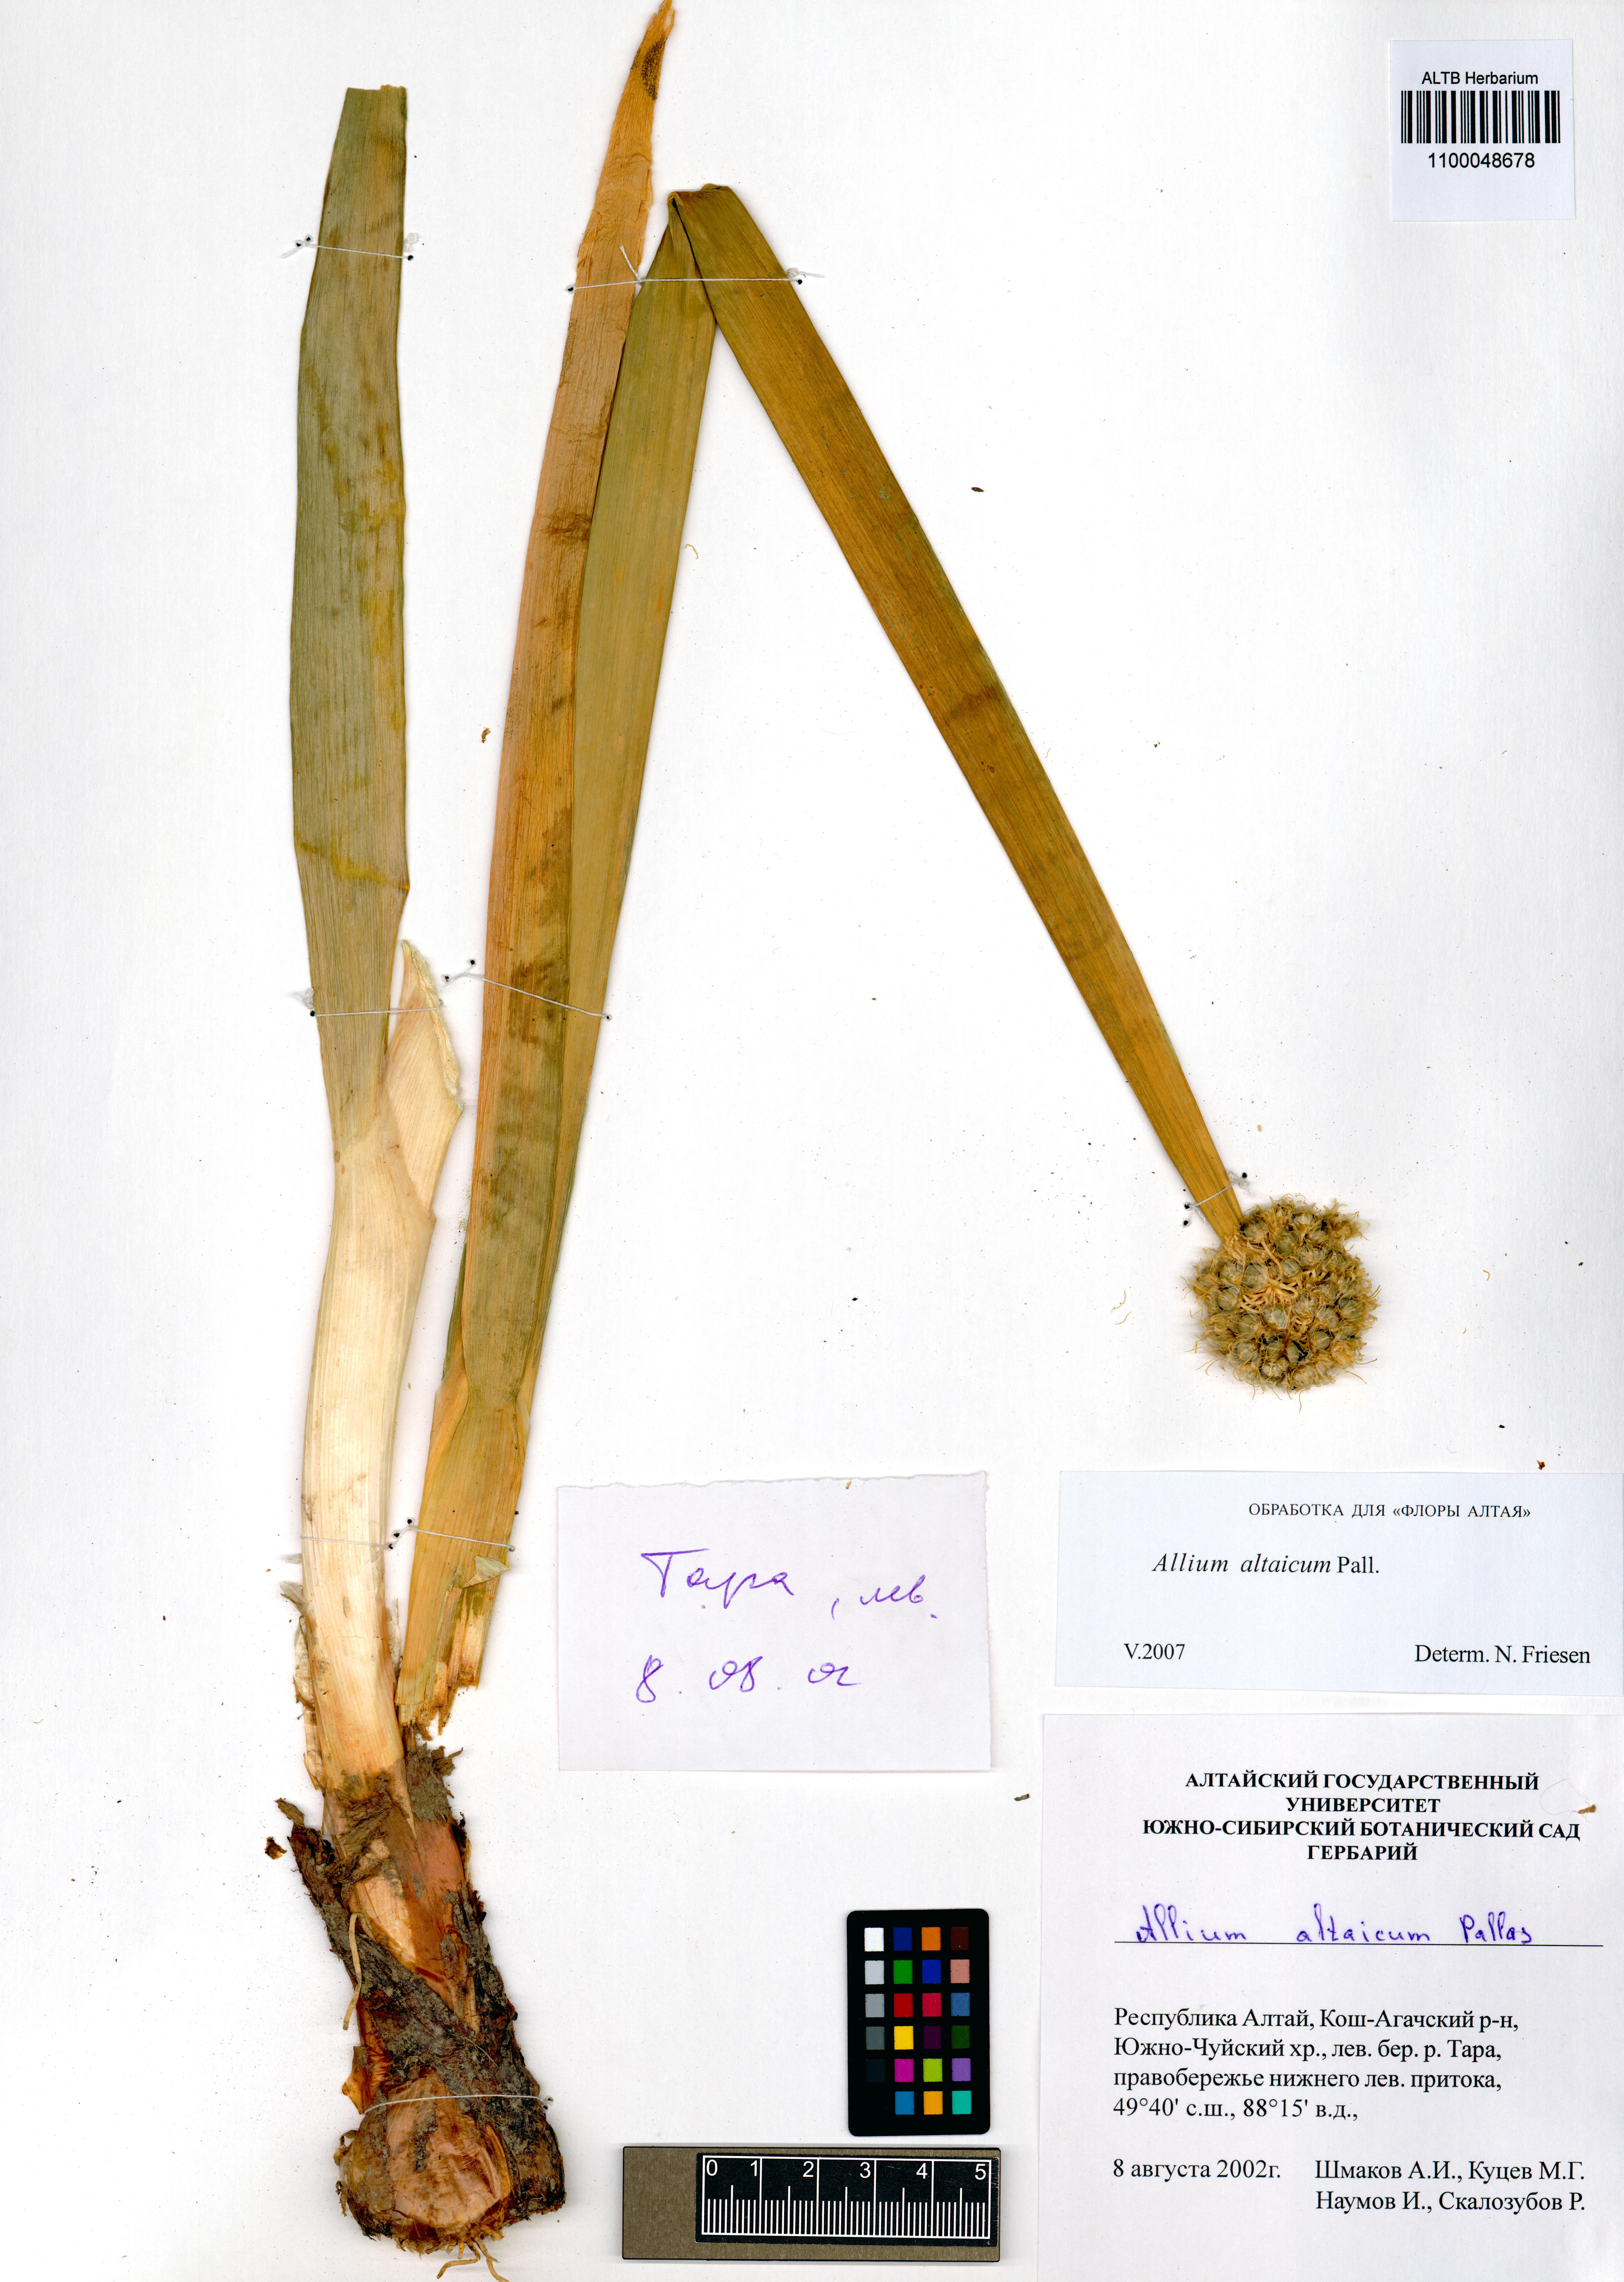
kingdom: Plantae
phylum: Tracheophyta
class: Liliopsida
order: Asparagales
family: Amaryllidaceae
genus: Allium
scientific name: Allium altaicum
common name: Altai onion
